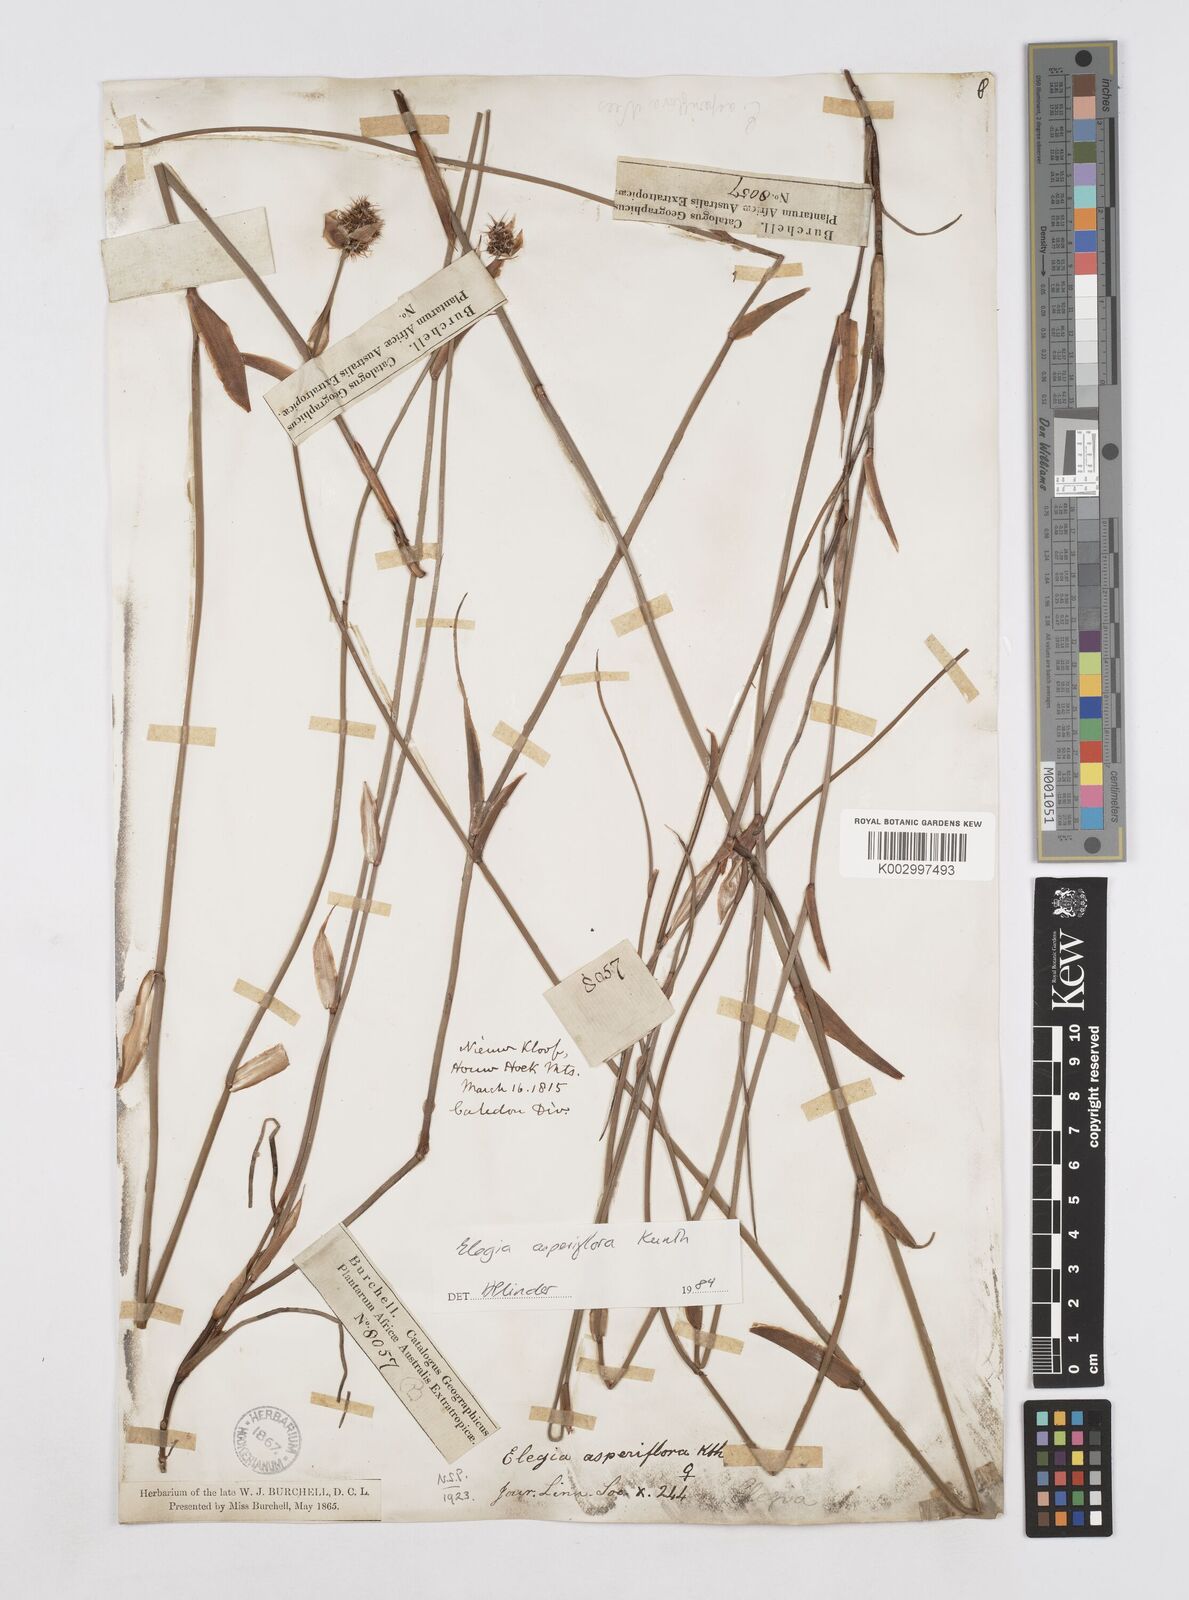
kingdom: Plantae
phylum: Tracheophyta
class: Liliopsida
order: Poales
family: Restionaceae
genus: Elegia
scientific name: Elegia asperiflora
